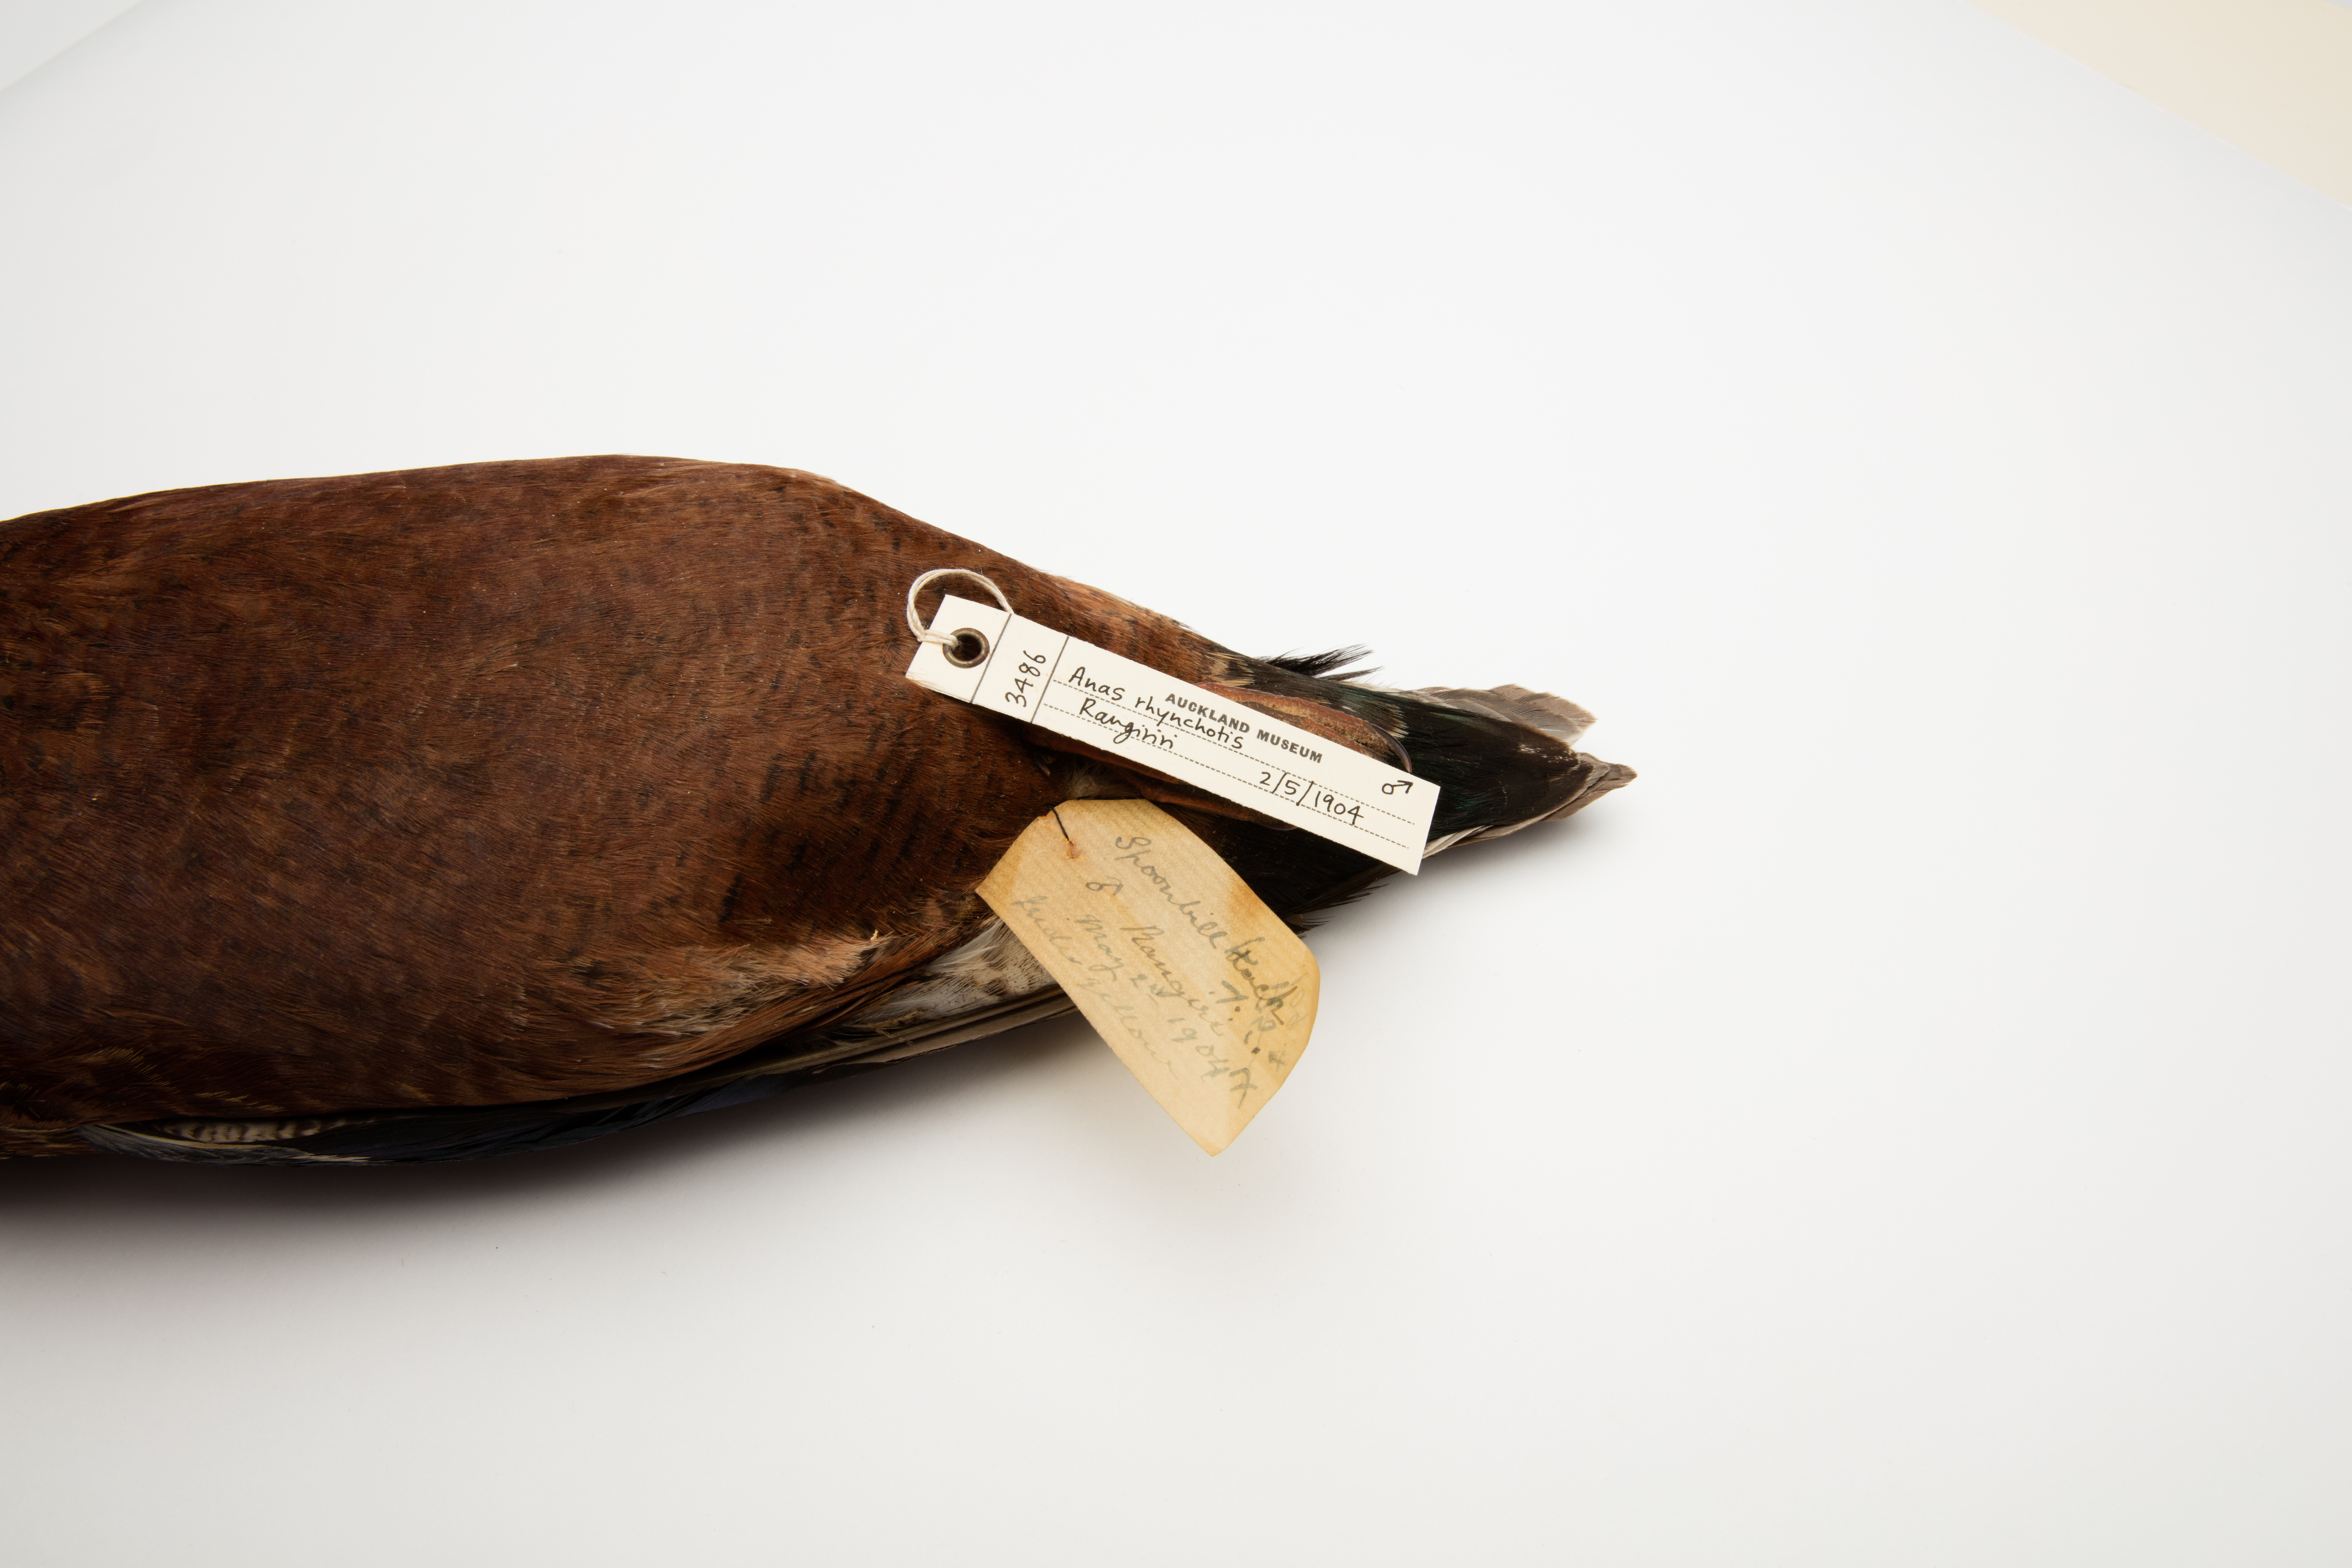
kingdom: Animalia
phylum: Chordata
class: Aves
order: Anseriformes
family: Anatidae
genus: Spatula
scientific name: Spatula rhynchotis
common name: Australian shoveler
